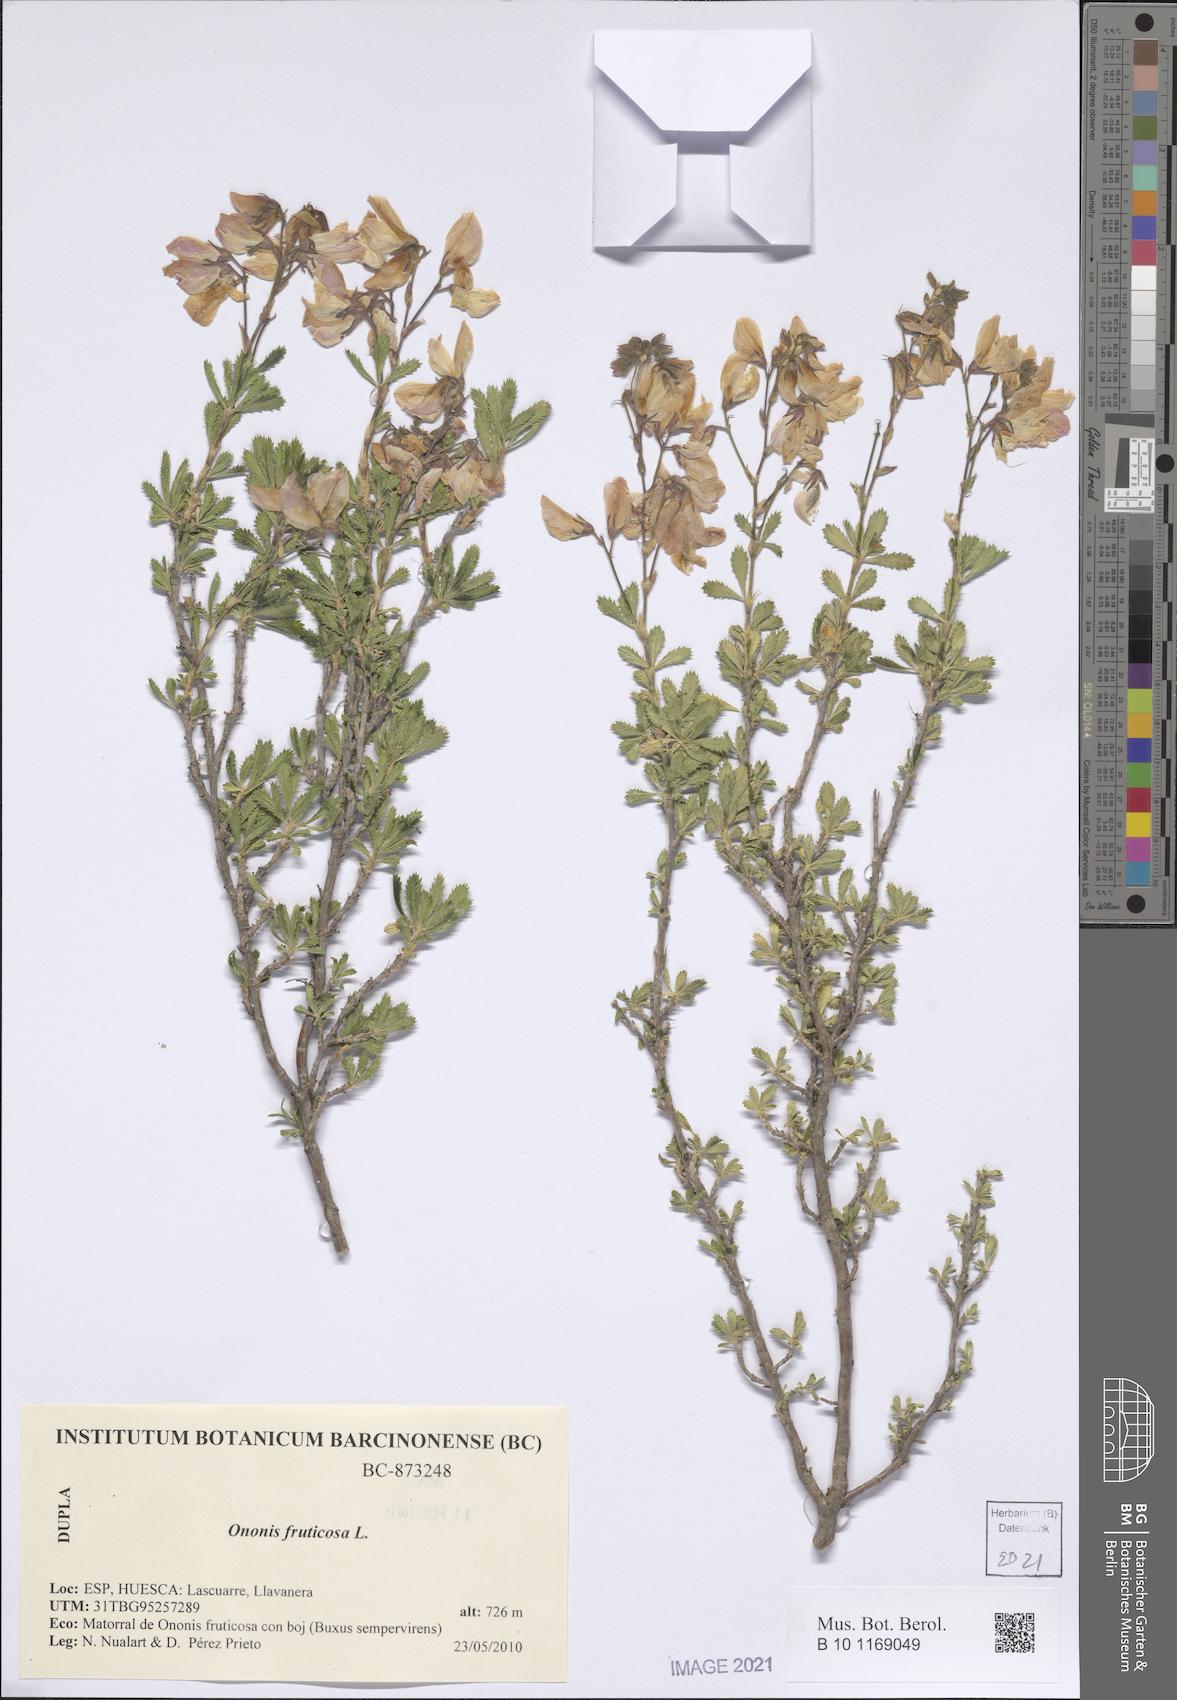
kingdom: Plantae
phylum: Tracheophyta
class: Magnoliopsida
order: Fabales
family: Fabaceae
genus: Ononis
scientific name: Ononis fruticosa
